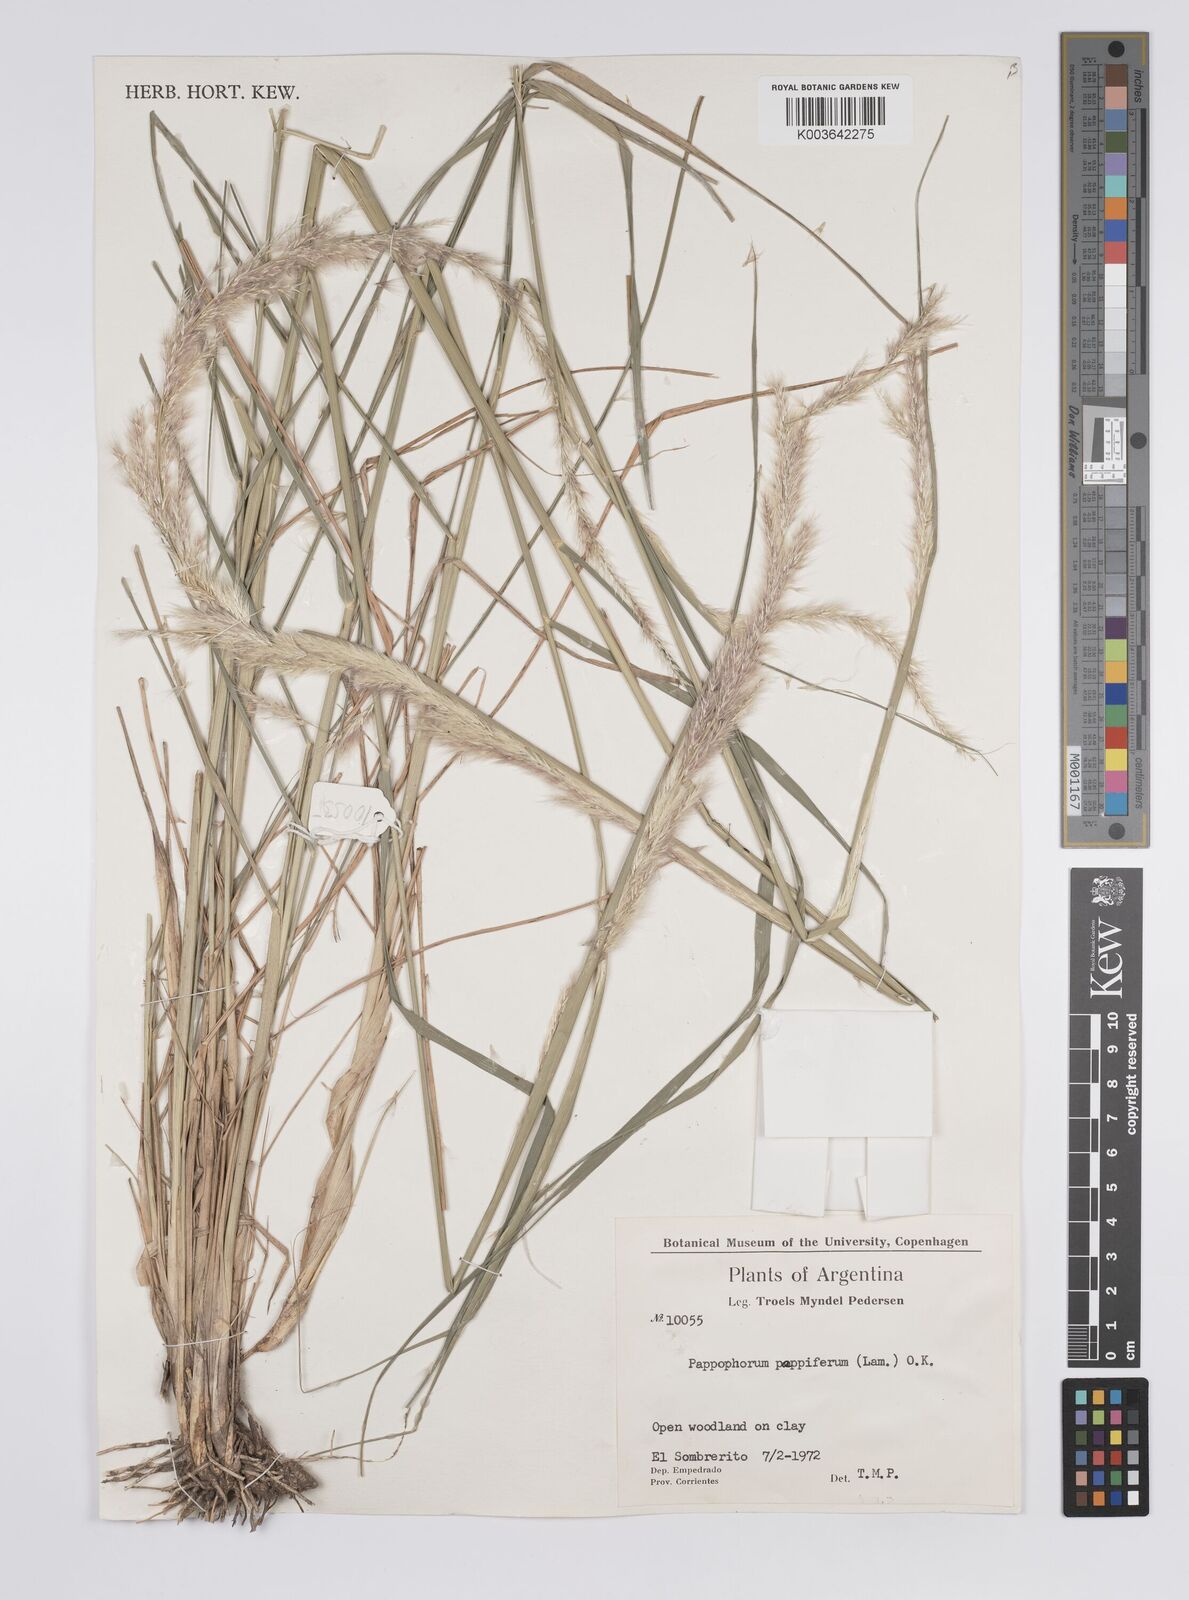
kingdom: Plantae
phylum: Tracheophyta
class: Liliopsida
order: Poales
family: Poaceae
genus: Pappophorum
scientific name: Pappophorum pappiferum
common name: Crabgrass
